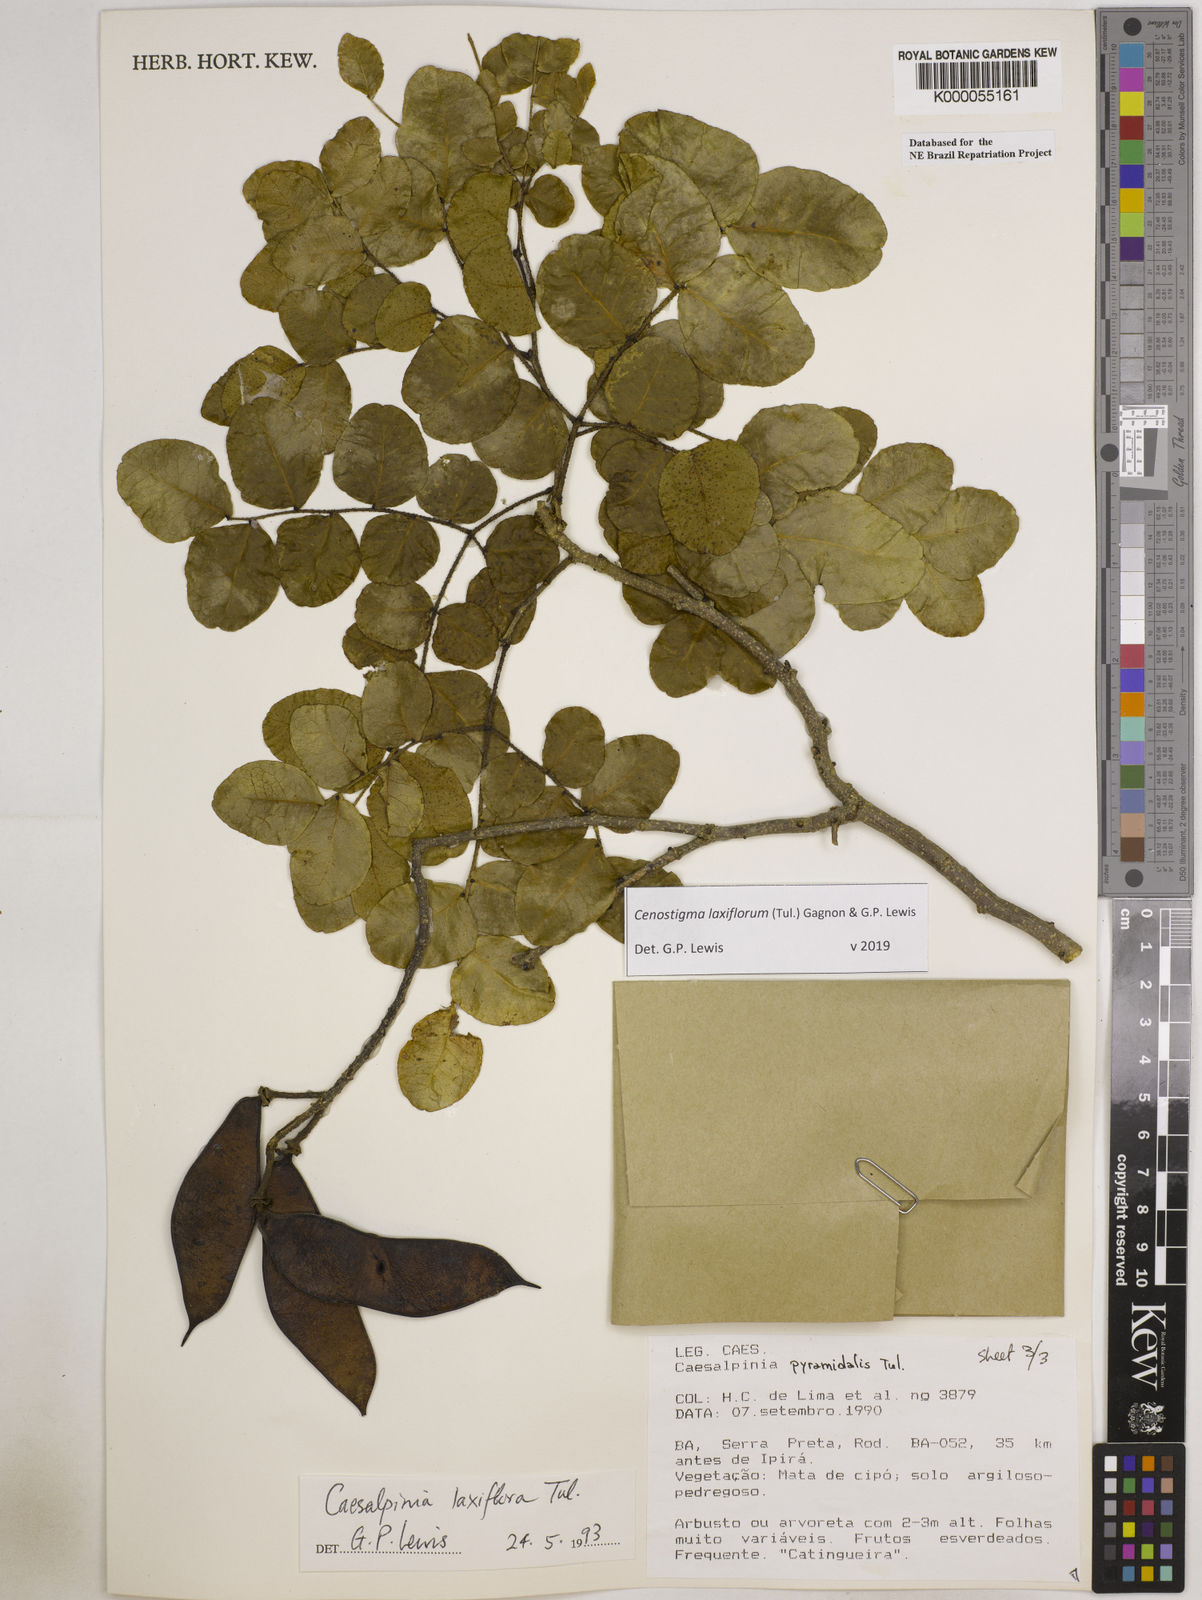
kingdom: Plantae
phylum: Tracheophyta
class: Magnoliopsida
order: Fabales
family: Fabaceae
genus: Cenostigma
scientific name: Cenostigma laxiflorum
